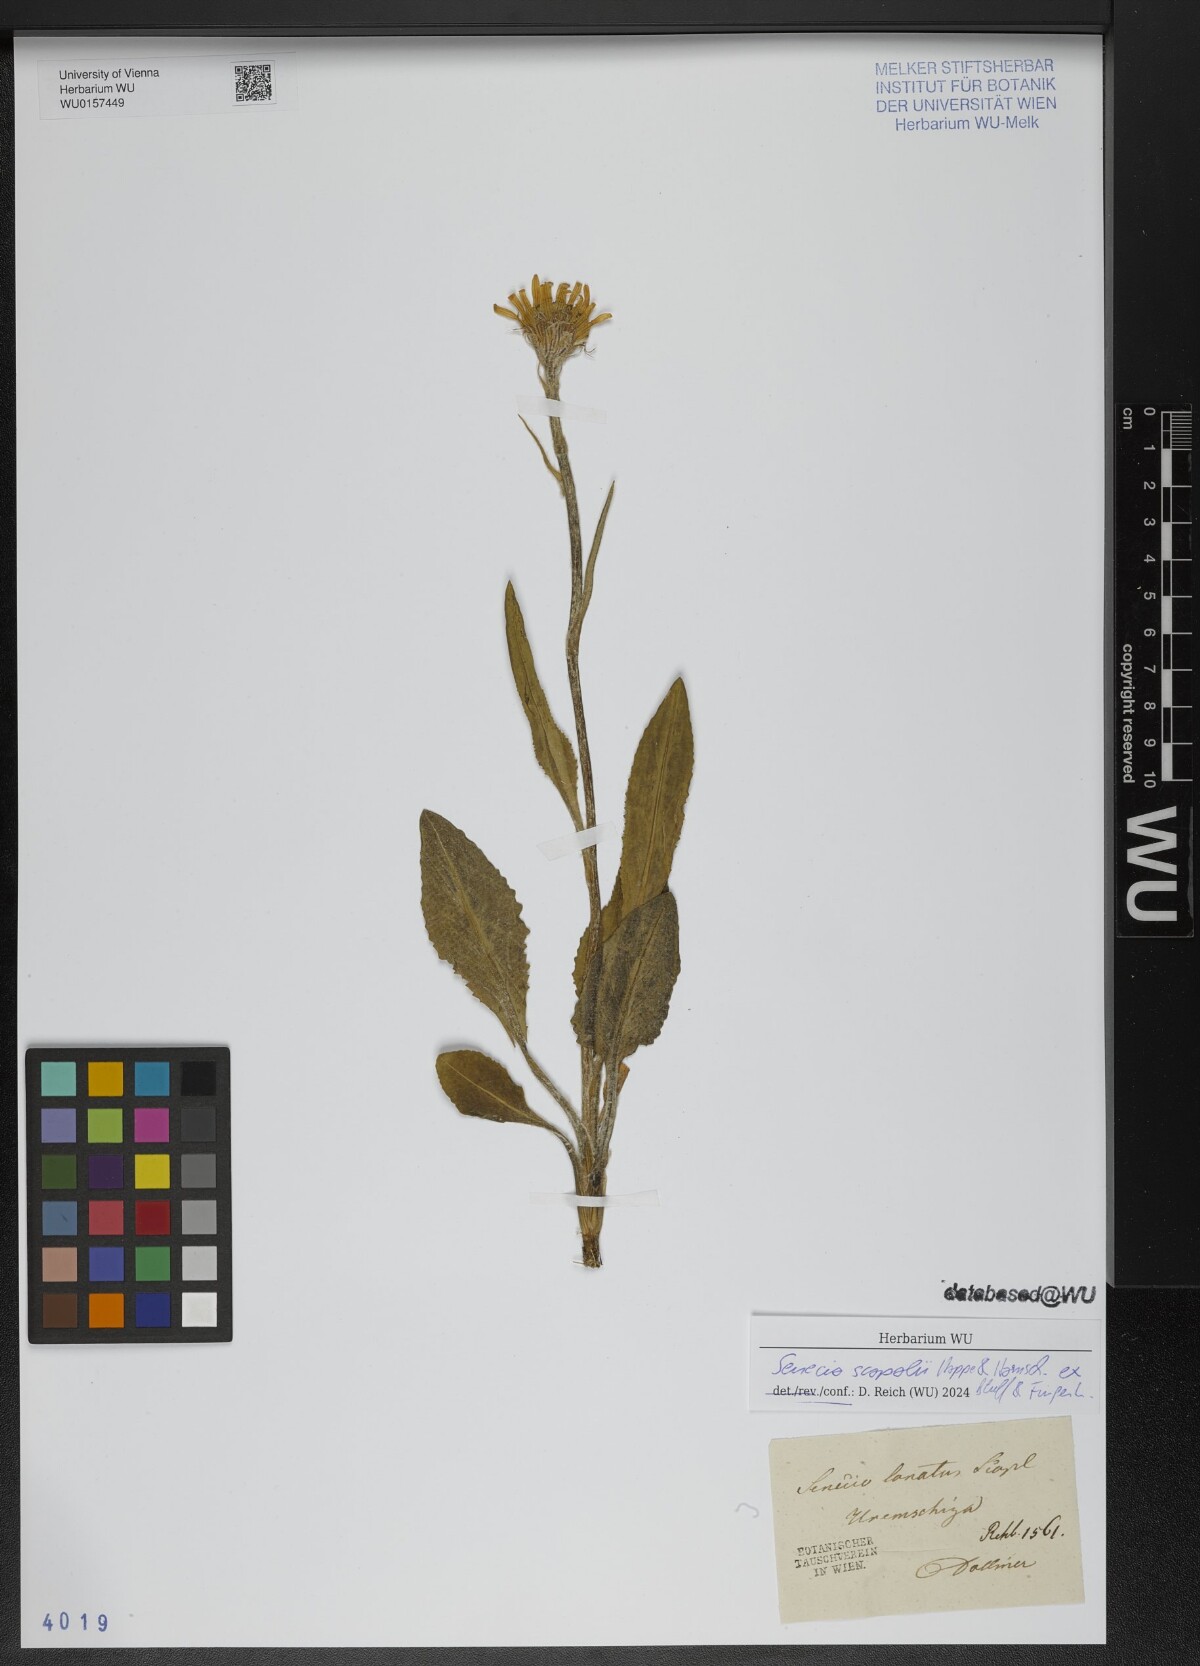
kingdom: Plantae
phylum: Tracheophyta
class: Magnoliopsida
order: Asterales
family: Asteraceae
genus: Senecio
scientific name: Senecio scopolii
